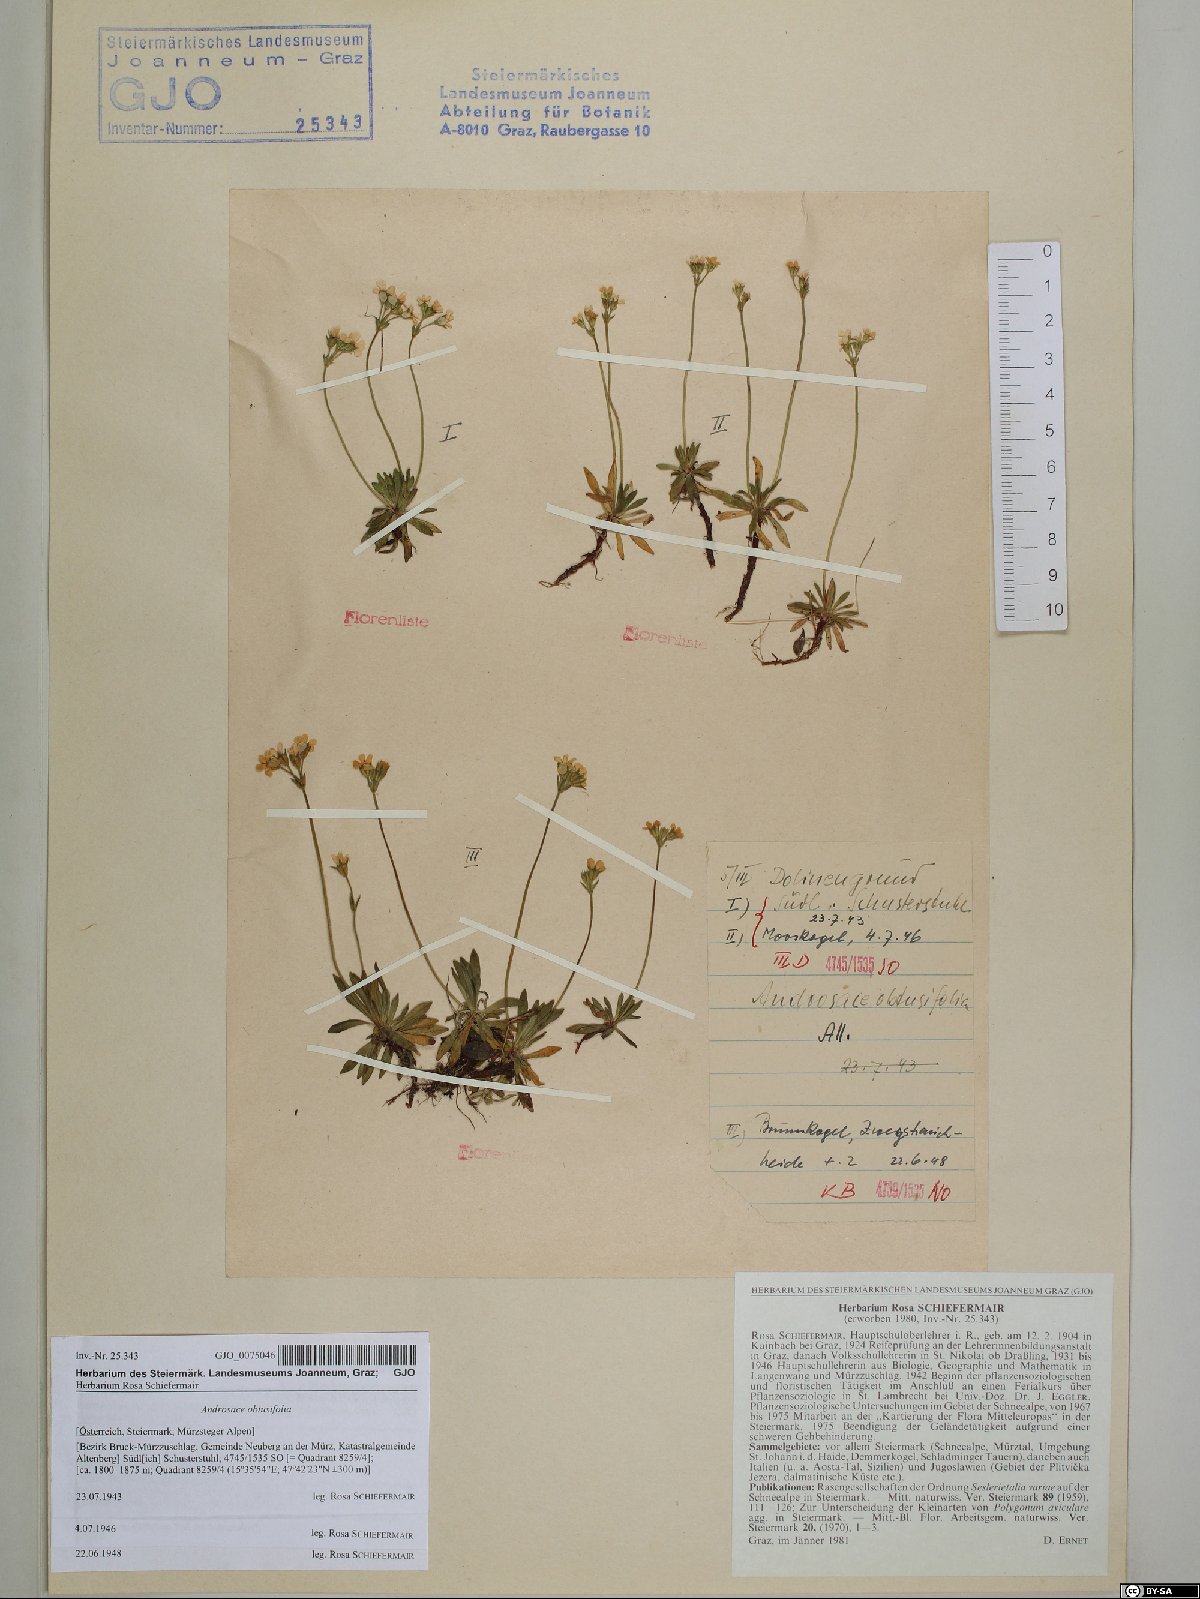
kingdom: Plantae
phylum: Tracheophyta
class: Magnoliopsida
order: Ericales
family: Primulaceae
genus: Androsace
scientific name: Androsace obtusifolia
